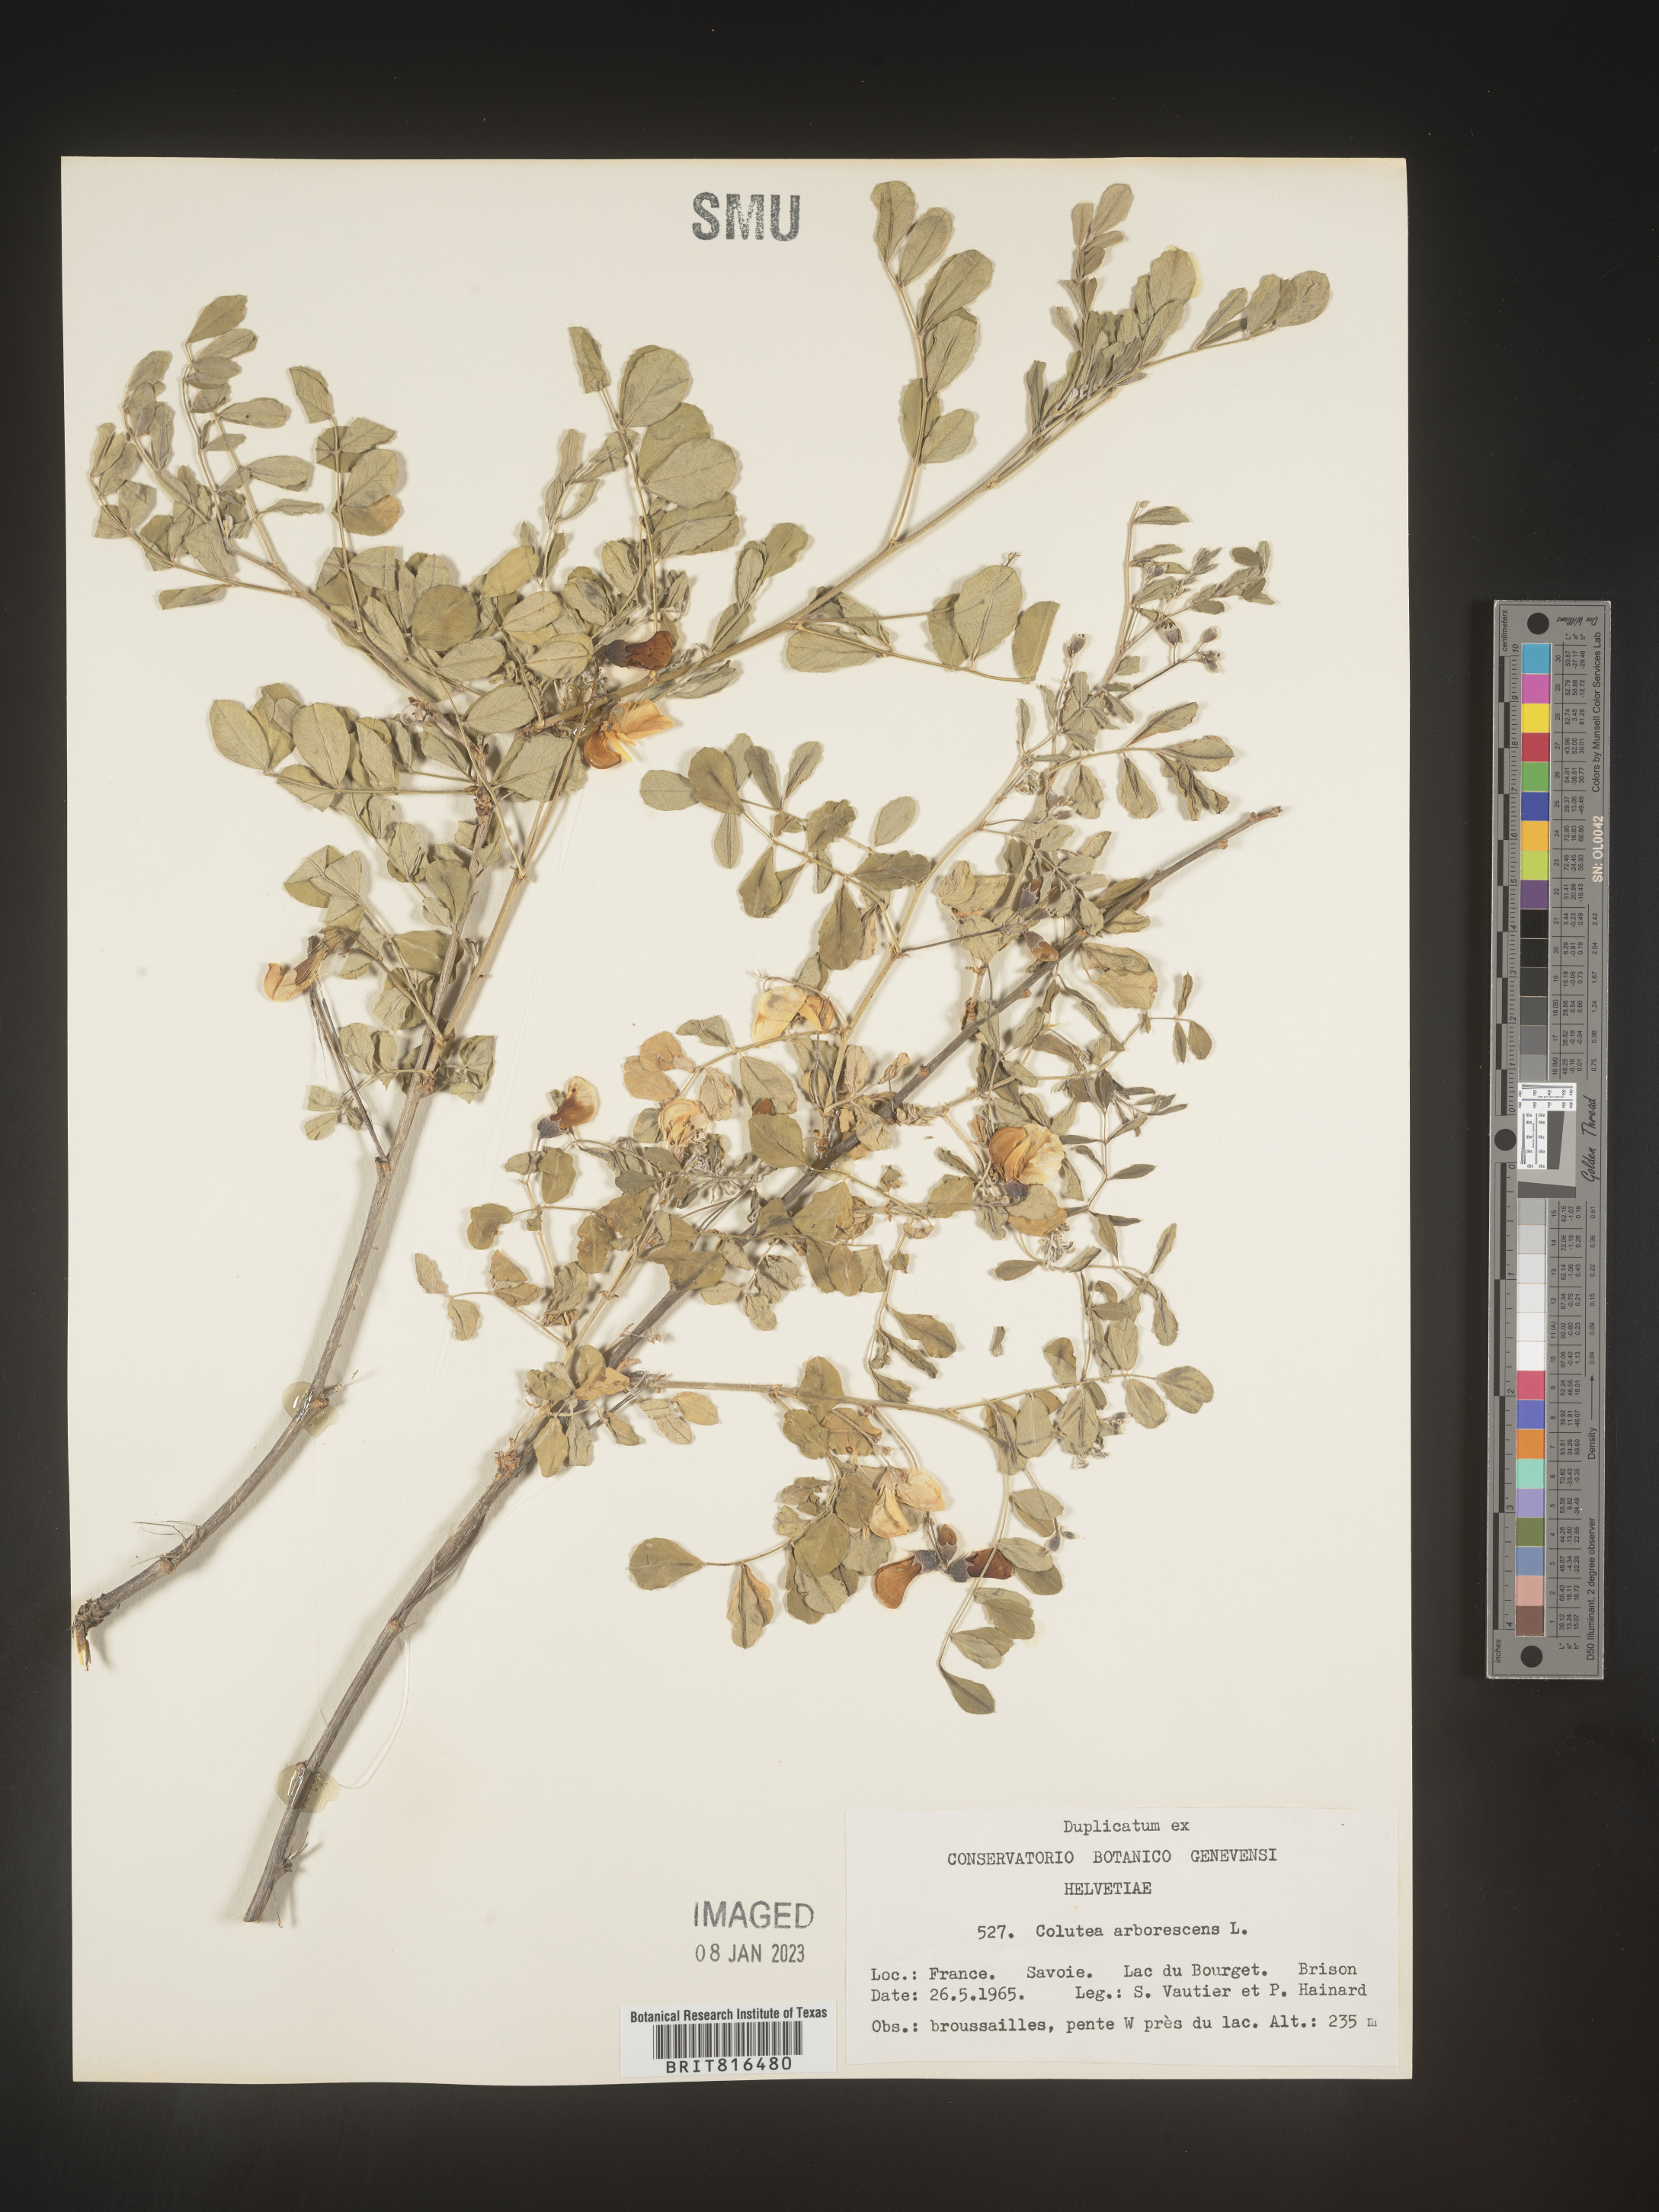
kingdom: Plantae
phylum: Tracheophyta
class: Magnoliopsida
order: Fabales
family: Fabaceae
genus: Colutea
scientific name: Colutea
